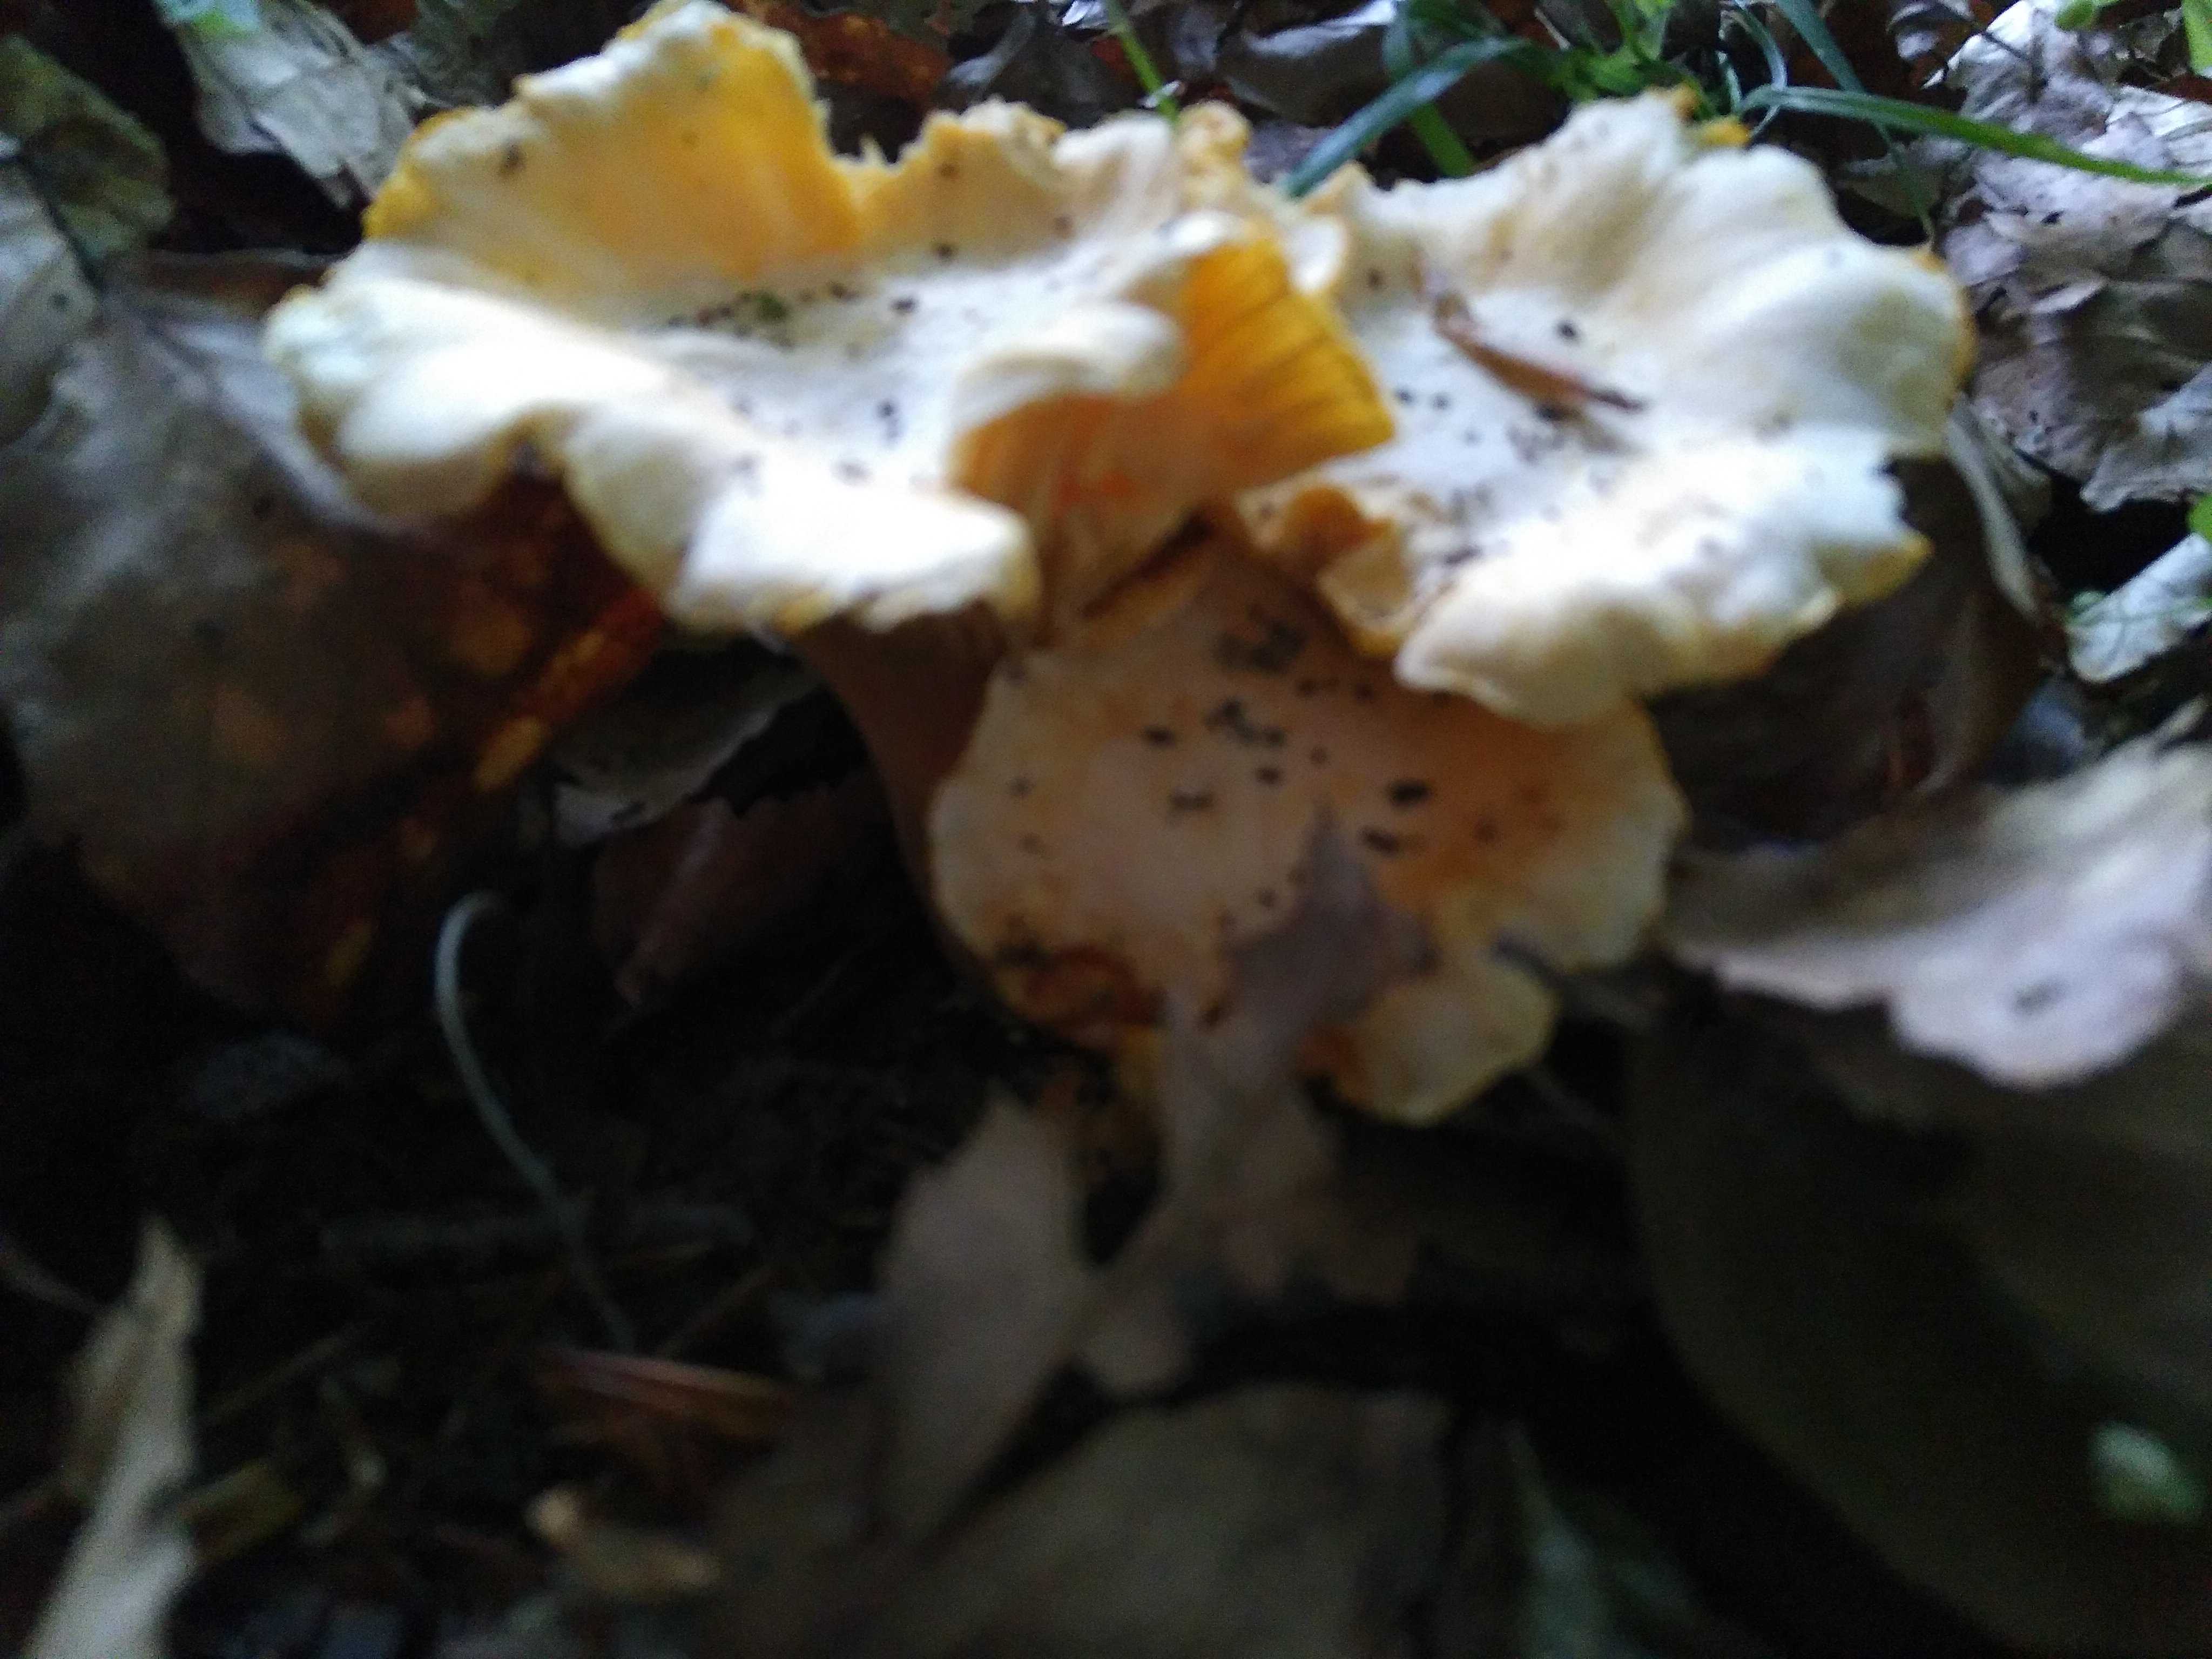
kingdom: Fungi
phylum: Basidiomycota
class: Agaricomycetes
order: Cantharellales
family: Hydnaceae
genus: Cantharellus
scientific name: Cantharellus pallens
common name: bleg kantarel
